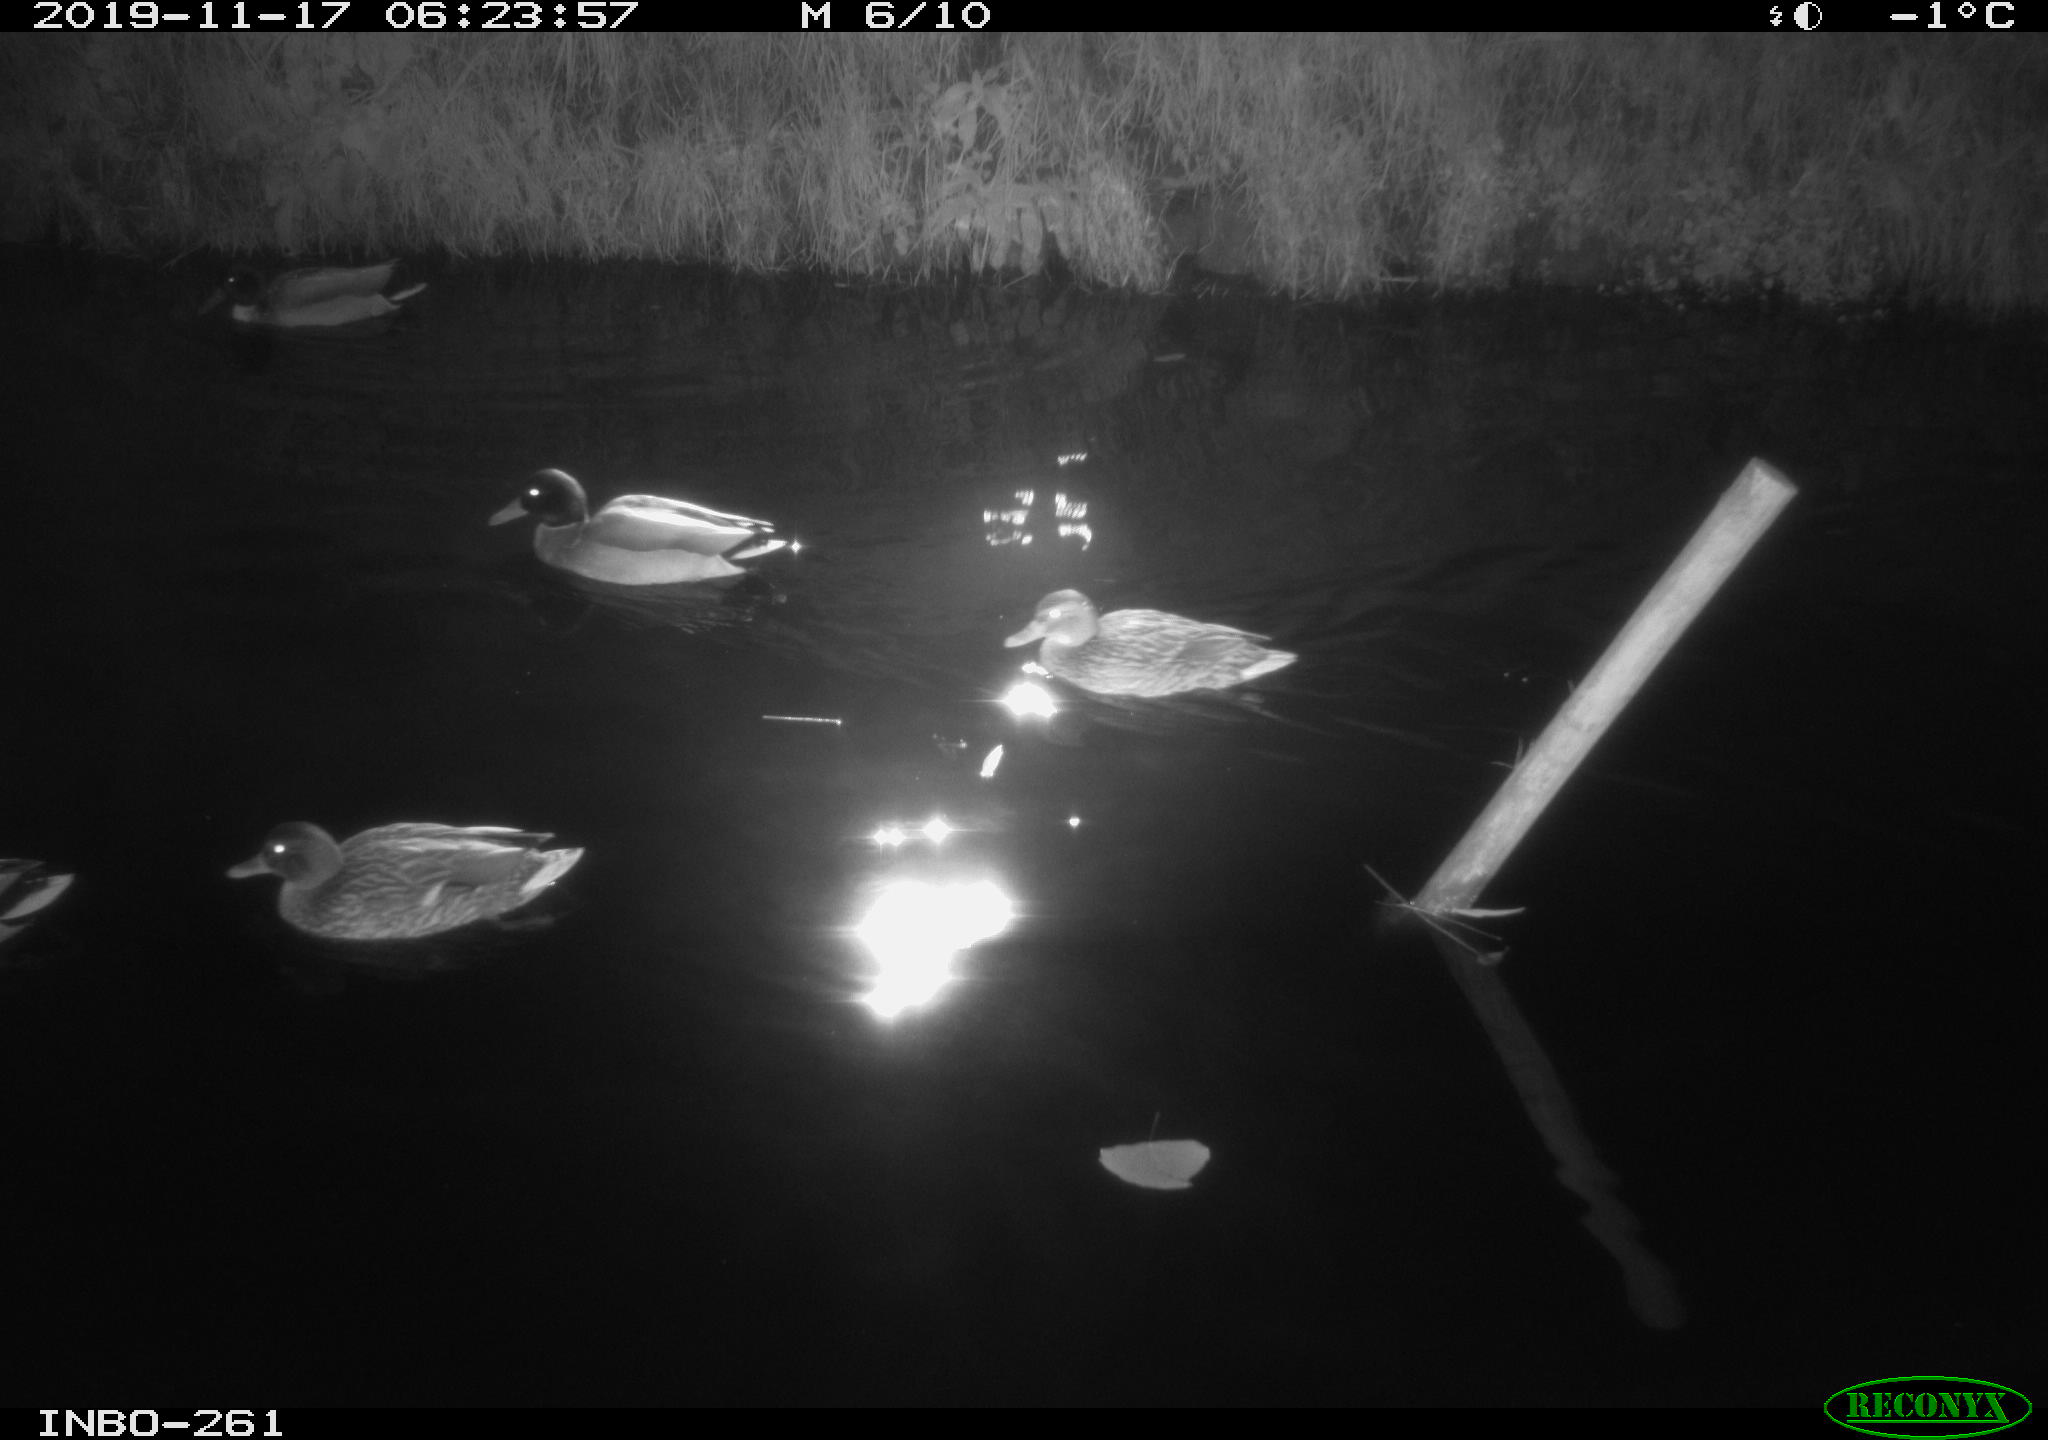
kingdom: Animalia
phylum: Chordata
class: Aves
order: Anseriformes
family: Anatidae
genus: Anas
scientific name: Anas platyrhynchos
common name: Mallard
